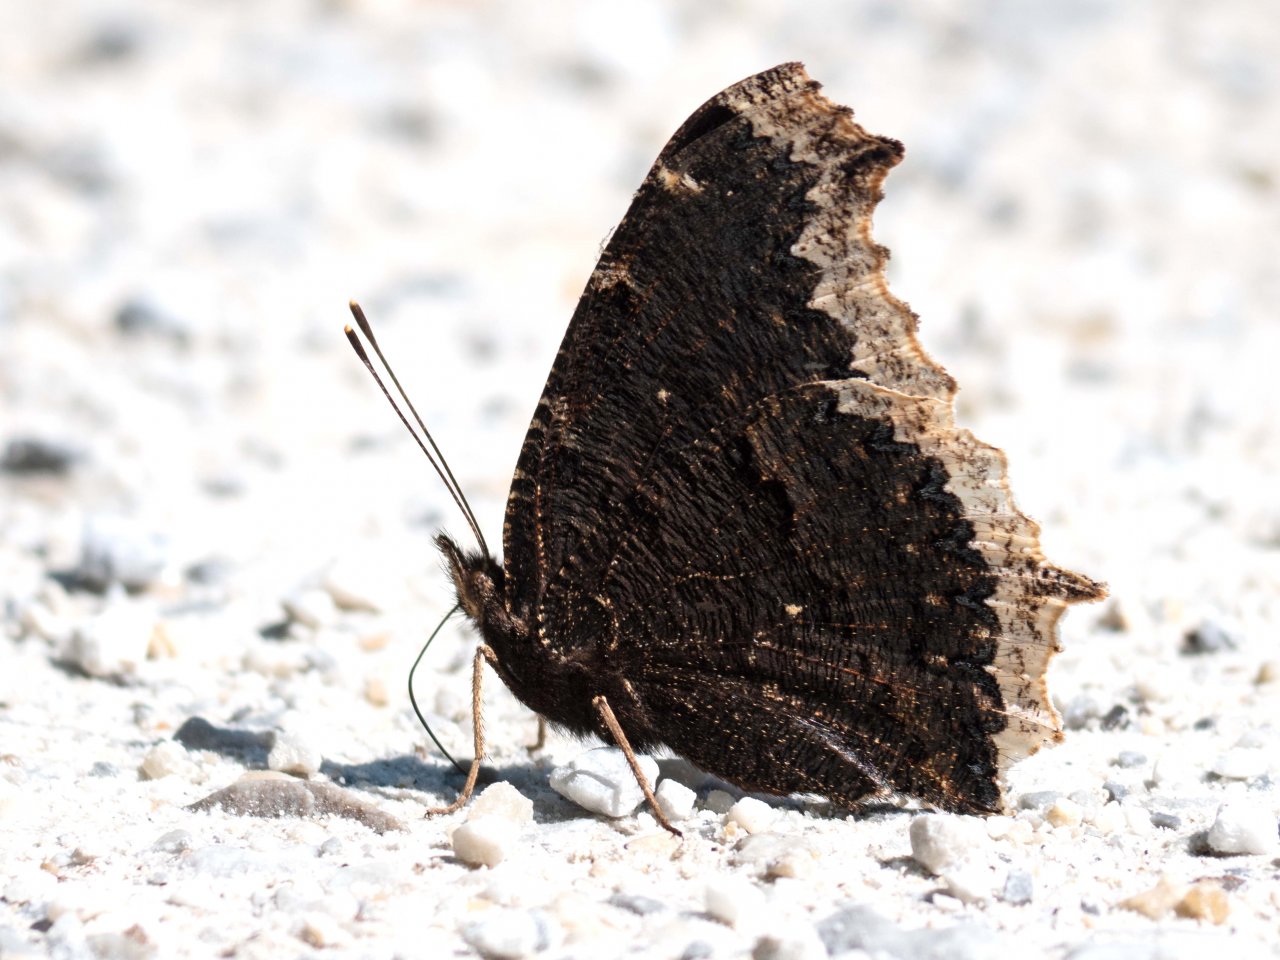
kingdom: Animalia
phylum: Arthropoda
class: Insecta
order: Lepidoptera
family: Nymphalidae
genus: Nymphalis
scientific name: Nymphalis antiopa
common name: Mourning Cloak
